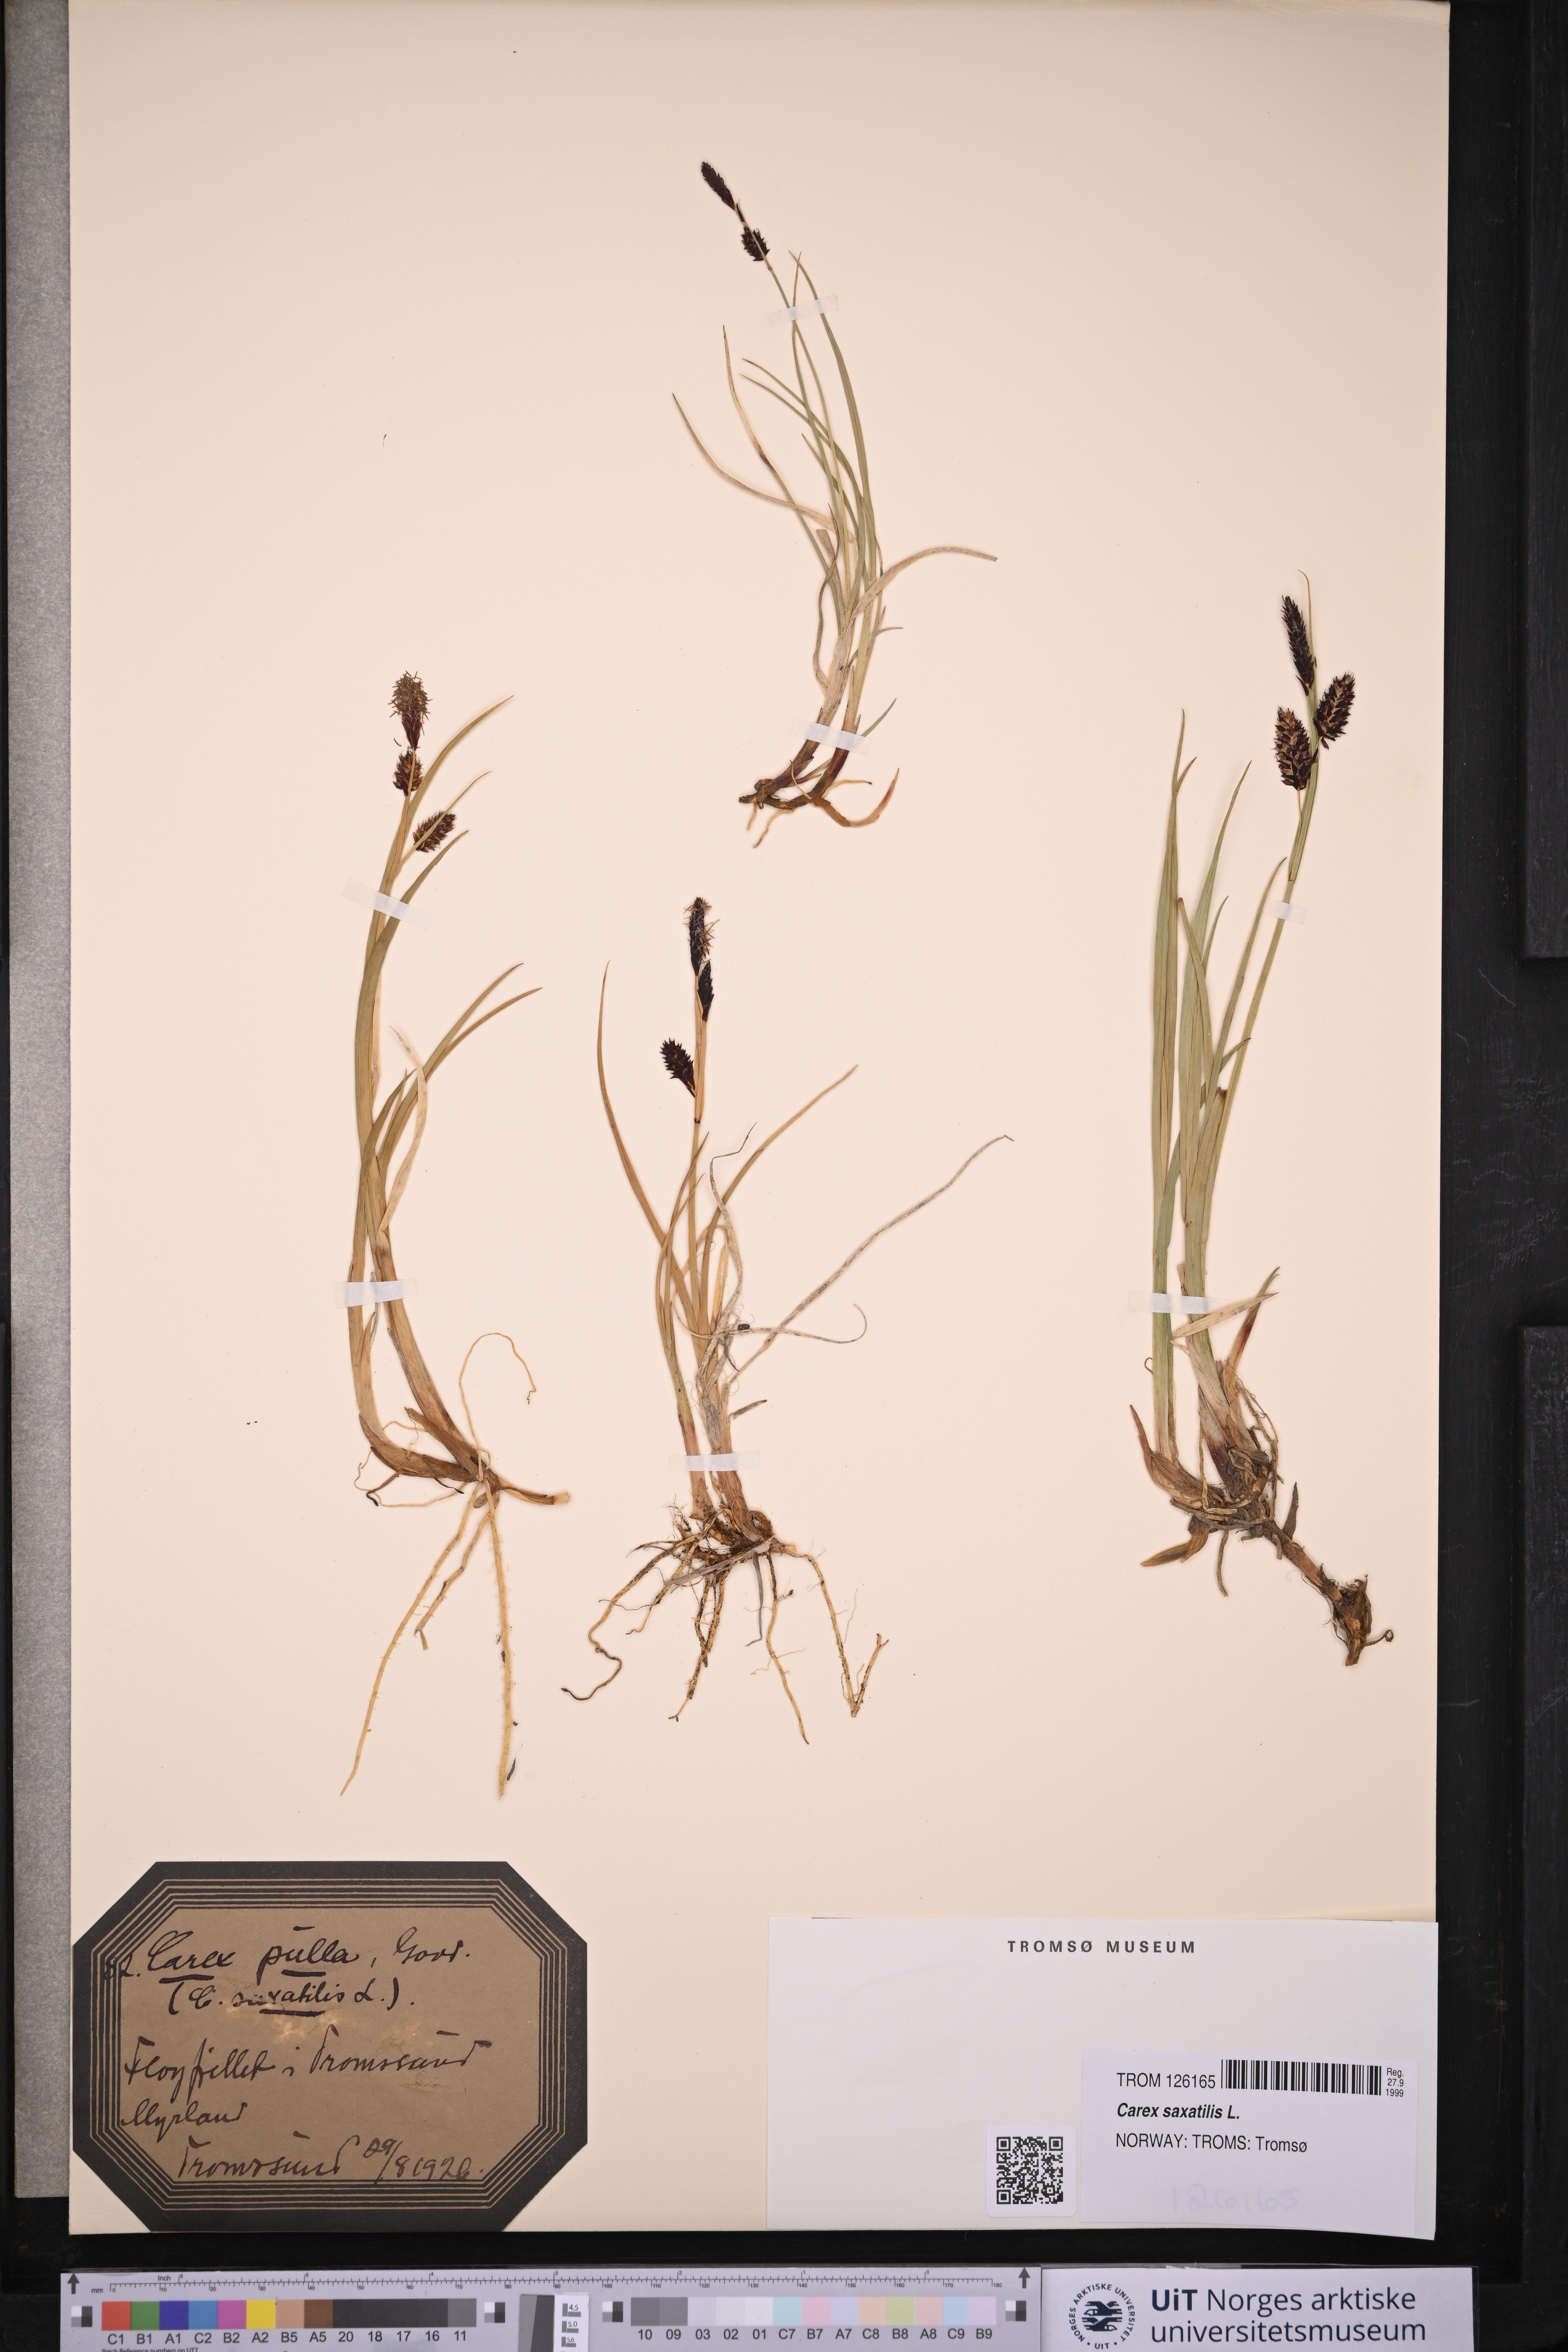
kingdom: Plantae
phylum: Tracheophyta
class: Liliopsida
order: Poales
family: Cyperaceae
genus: Carex
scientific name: Carex saxatilis
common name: Russet sedge
